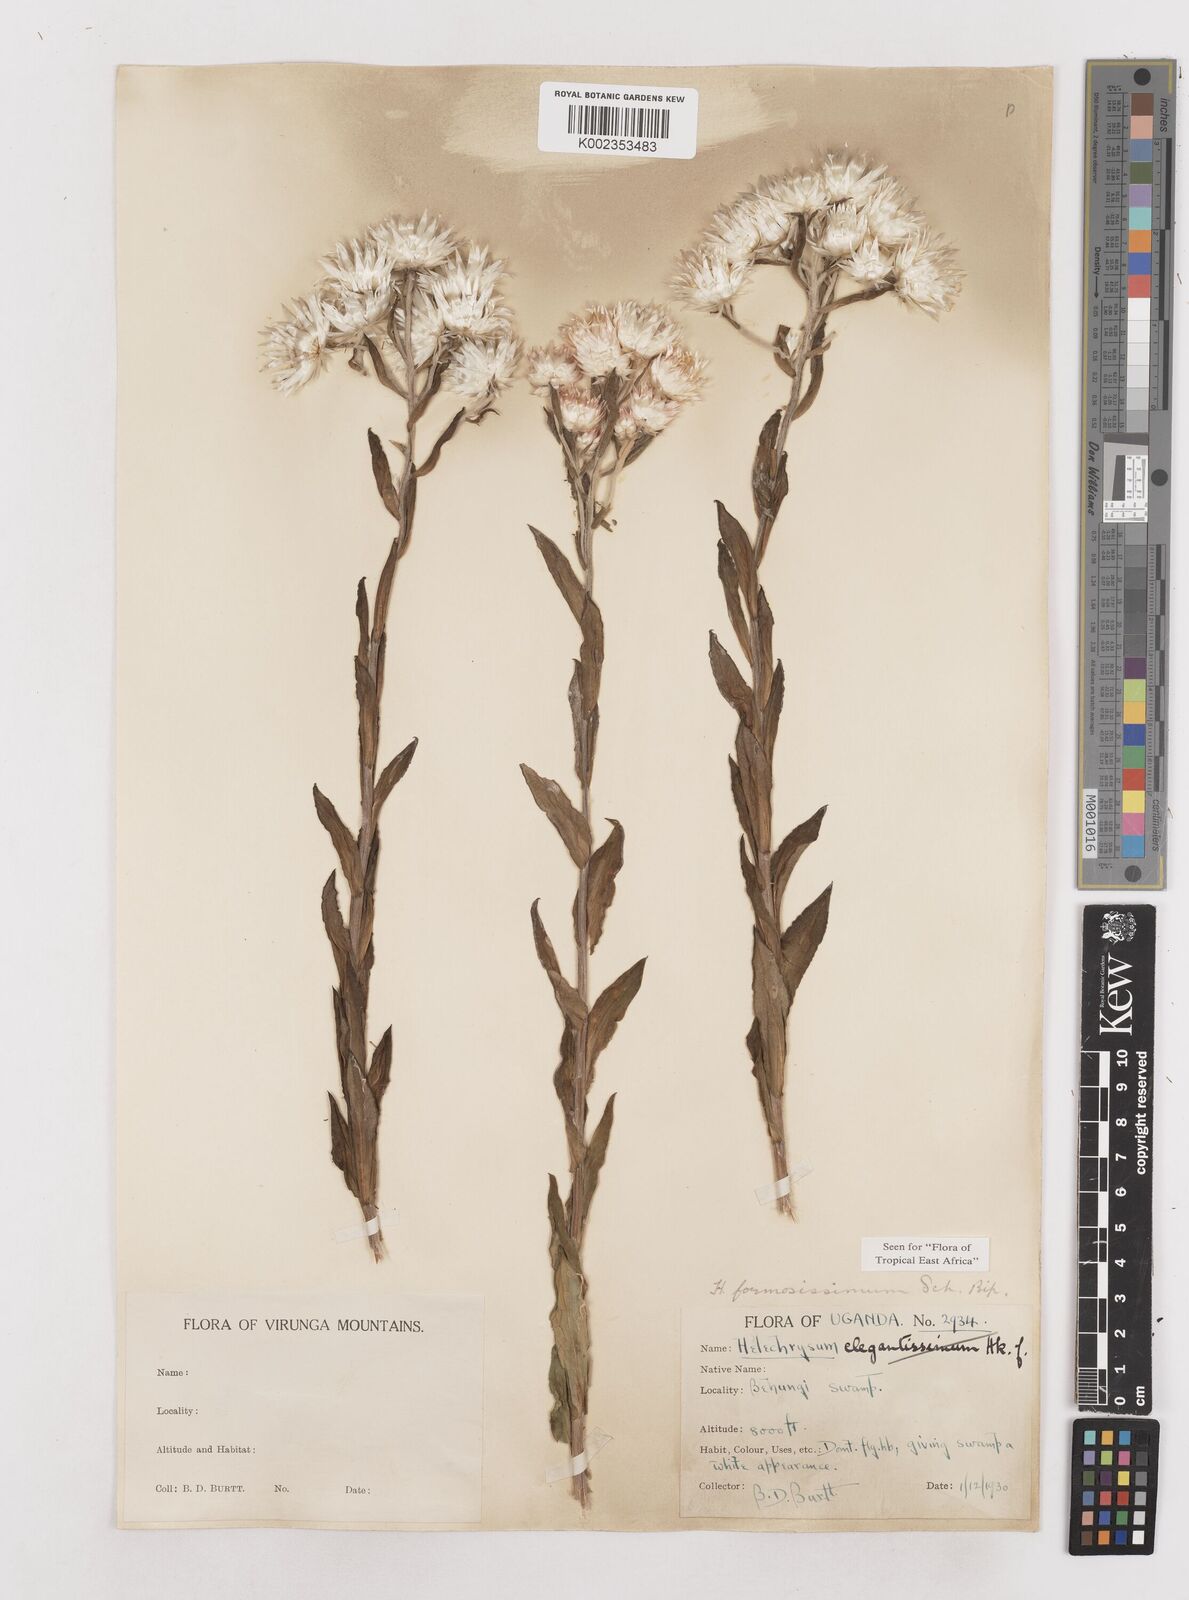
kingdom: Plantae
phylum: Tracheophyta
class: Magnoliopsida
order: Asterales
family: Asteraceae
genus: Helichrysum
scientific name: Helichrysum formosissimum
